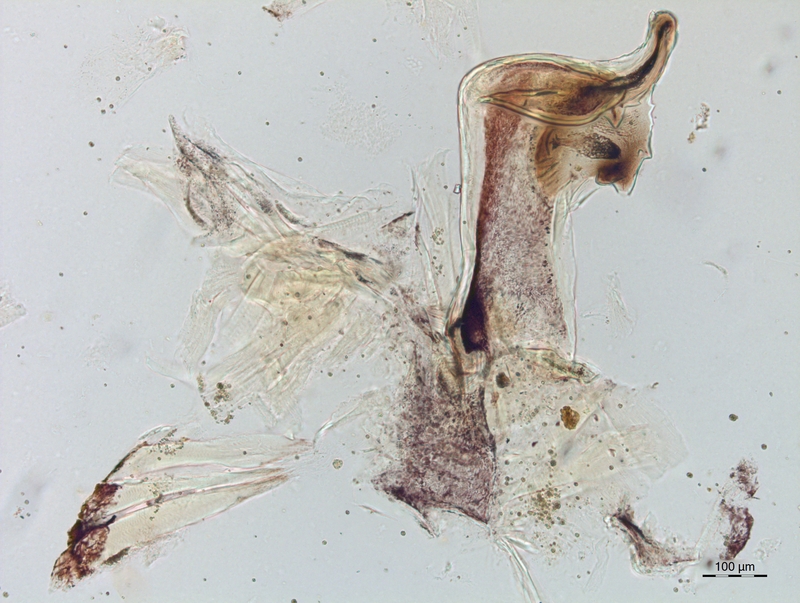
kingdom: Animalia
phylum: Arthropoda
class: Diplopoda
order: Chordeumatida
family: Craspedosomatidae
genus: Craspedosoma
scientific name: Craspedosoma rawlinsii
